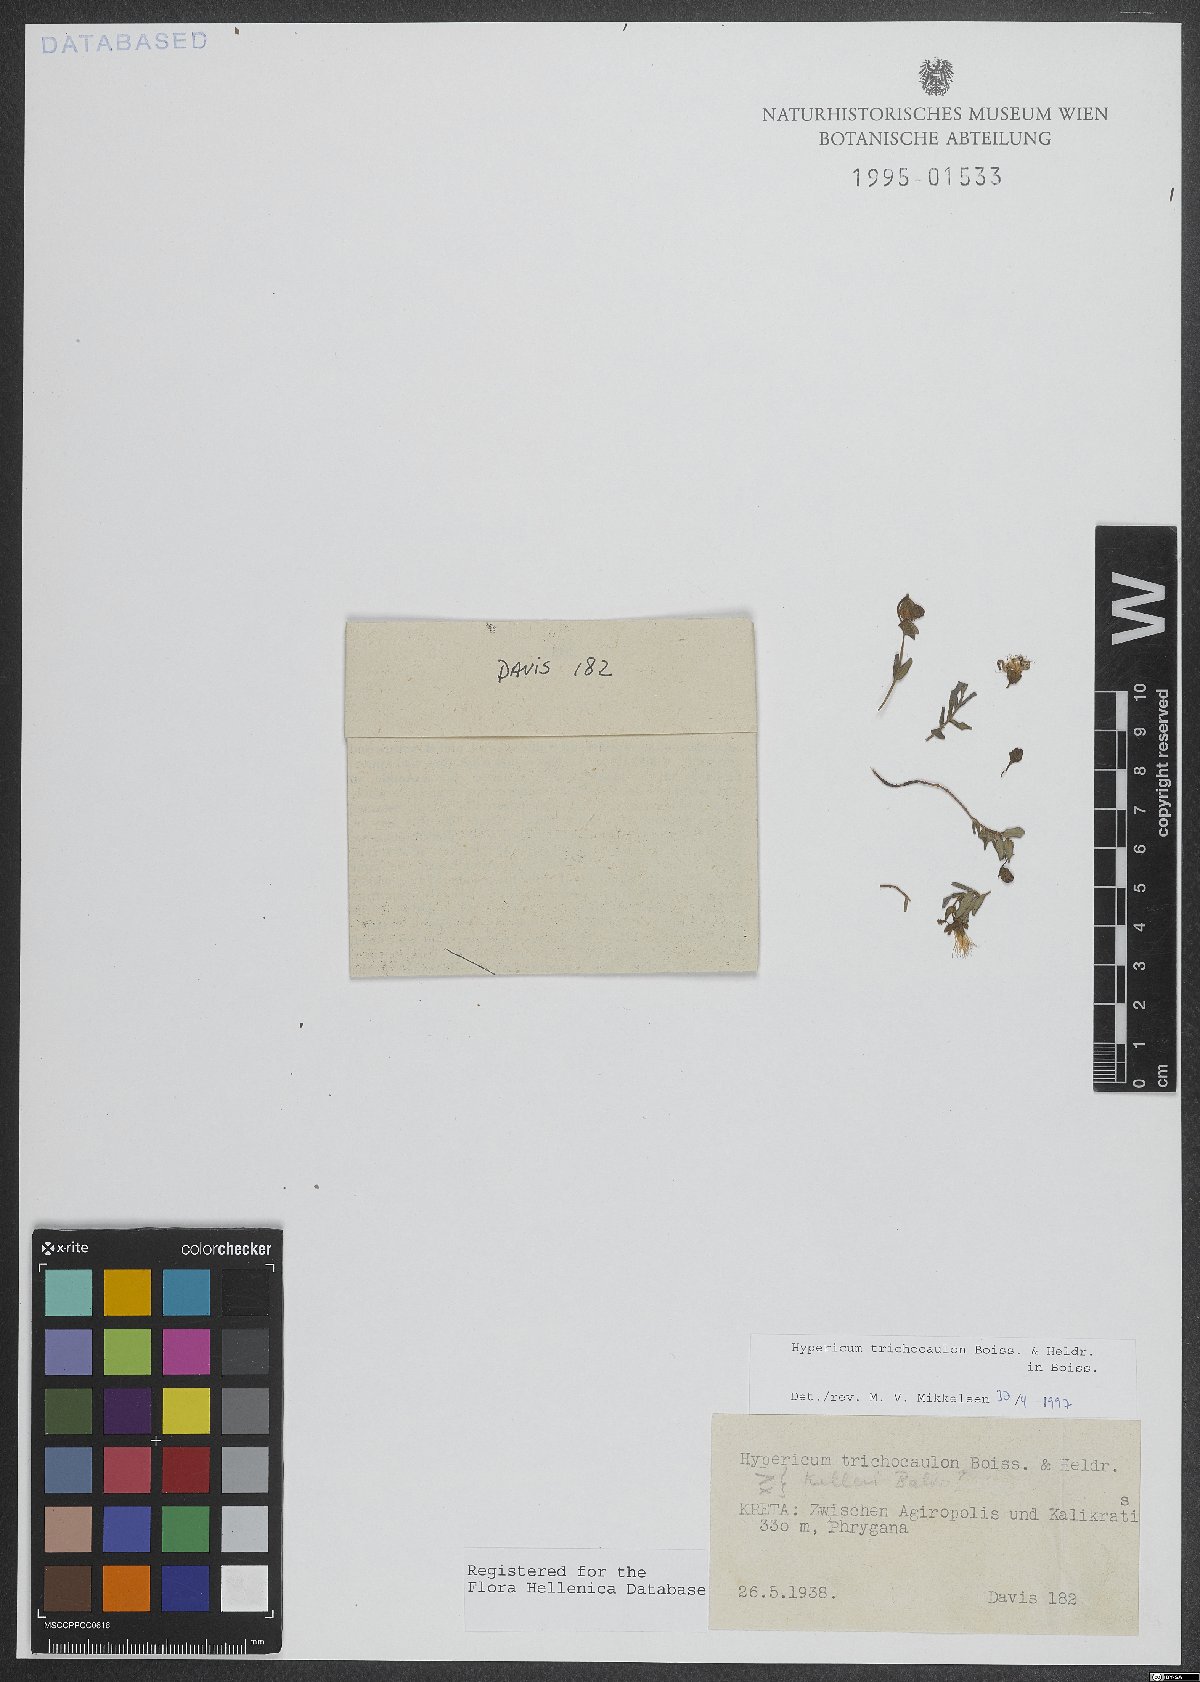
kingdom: Plantae
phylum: Tracheophyta
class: Magnoliopsida
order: Malpighiales
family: Hypericaceae
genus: Hypericum
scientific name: Hypericum trichocaulon
